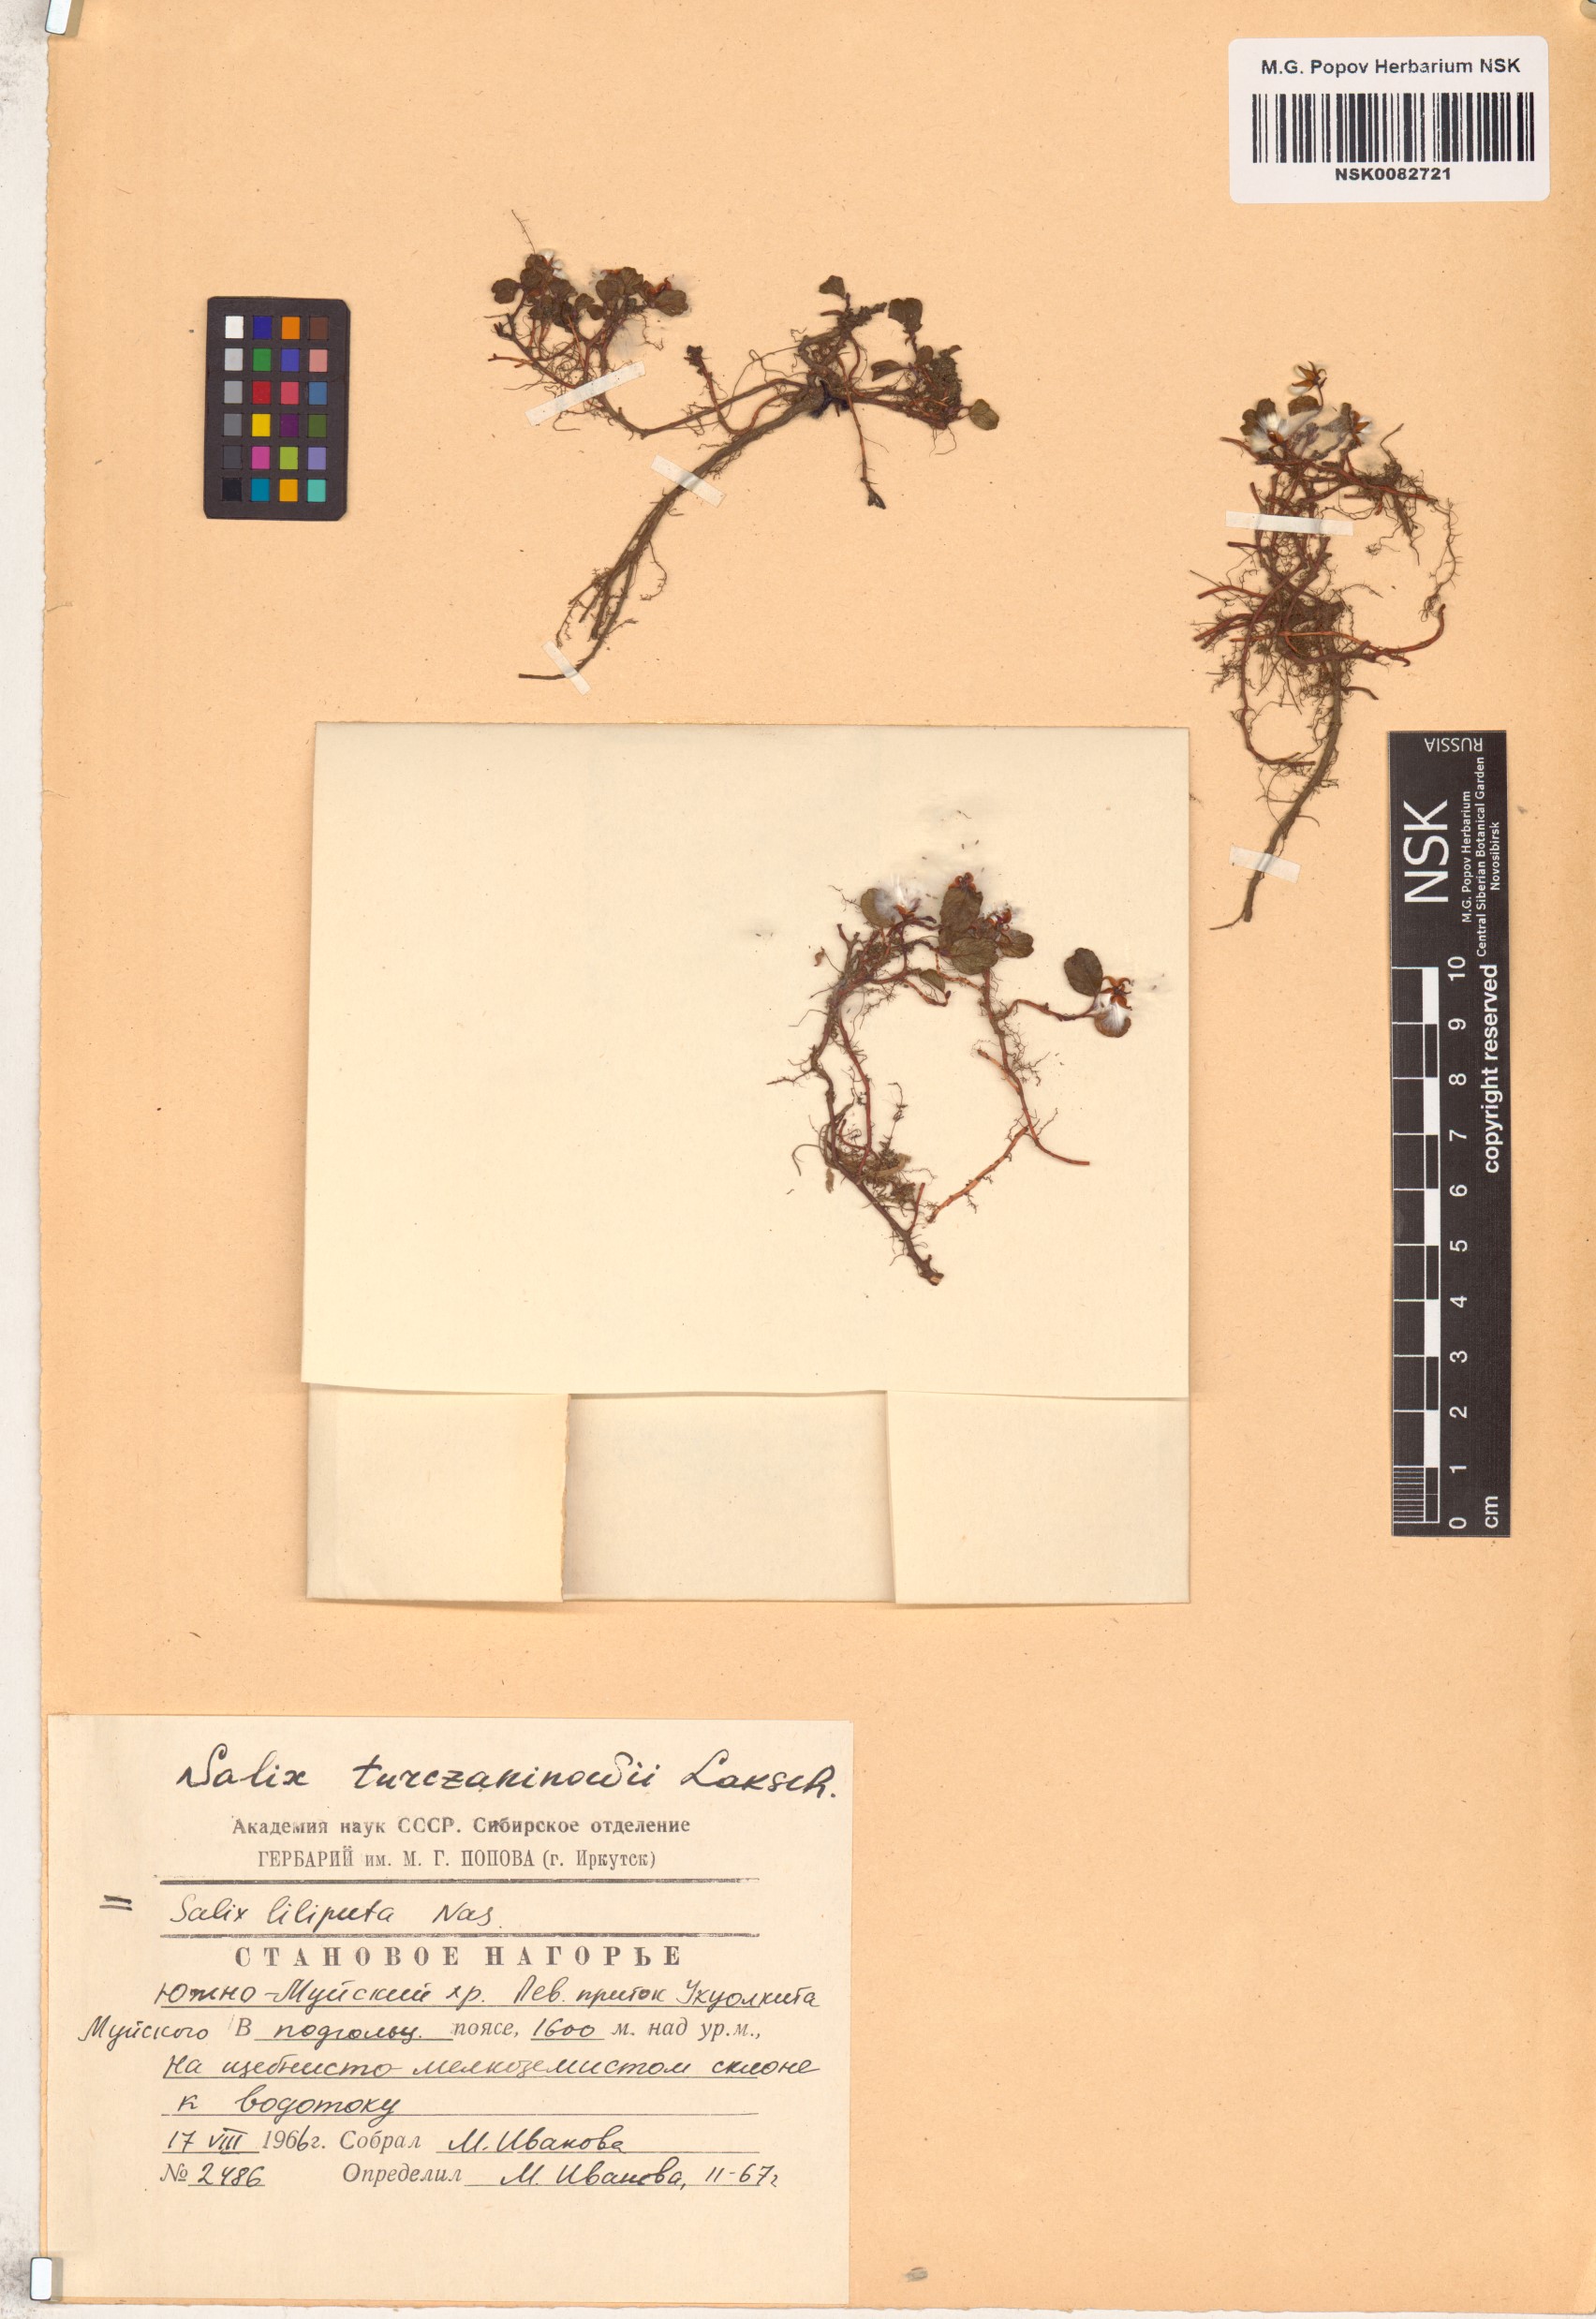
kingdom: Plantae
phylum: Tracheophyta
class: Magnoliopsida
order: Malpighiales
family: Salicaceae
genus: Salix
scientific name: Salix turczaninowii
